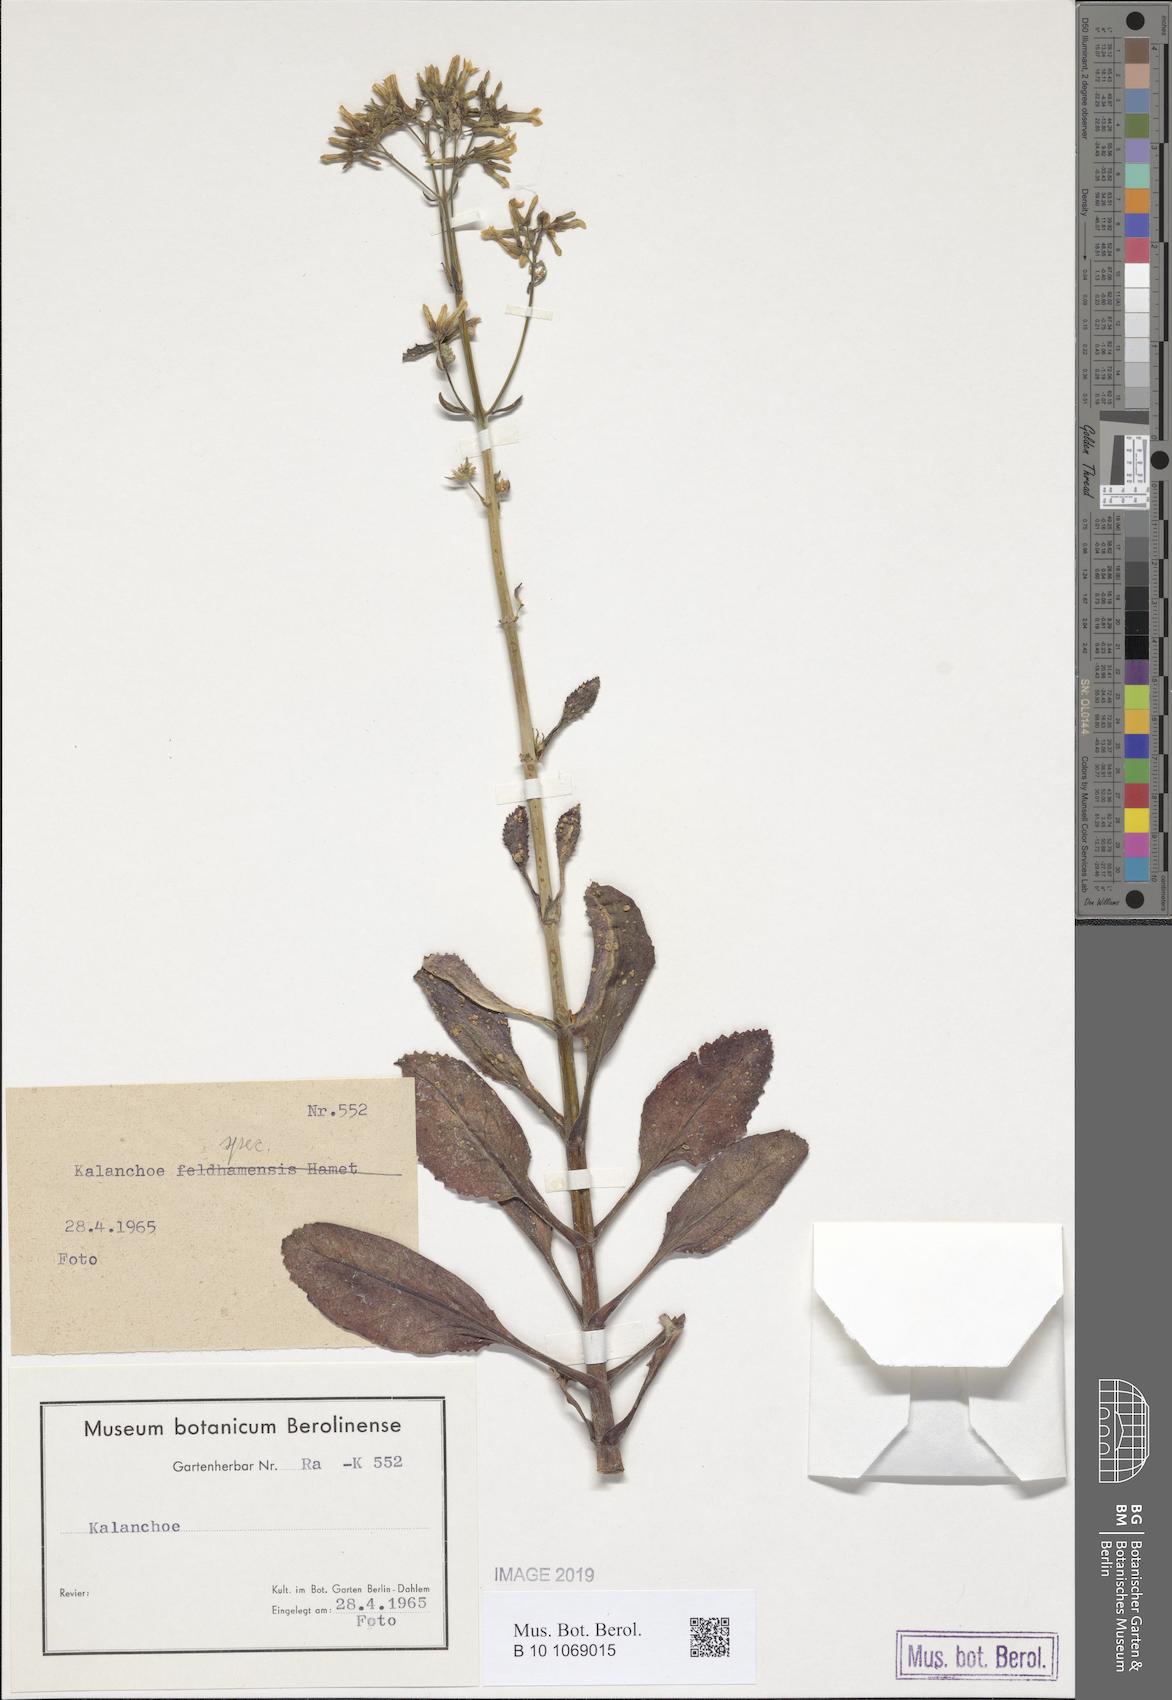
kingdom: Plantae
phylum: Tracheophyta
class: Magnoliopsida
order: Saxifragales
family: Crassulaceae
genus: Kalanchoe
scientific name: Kalanchoe
